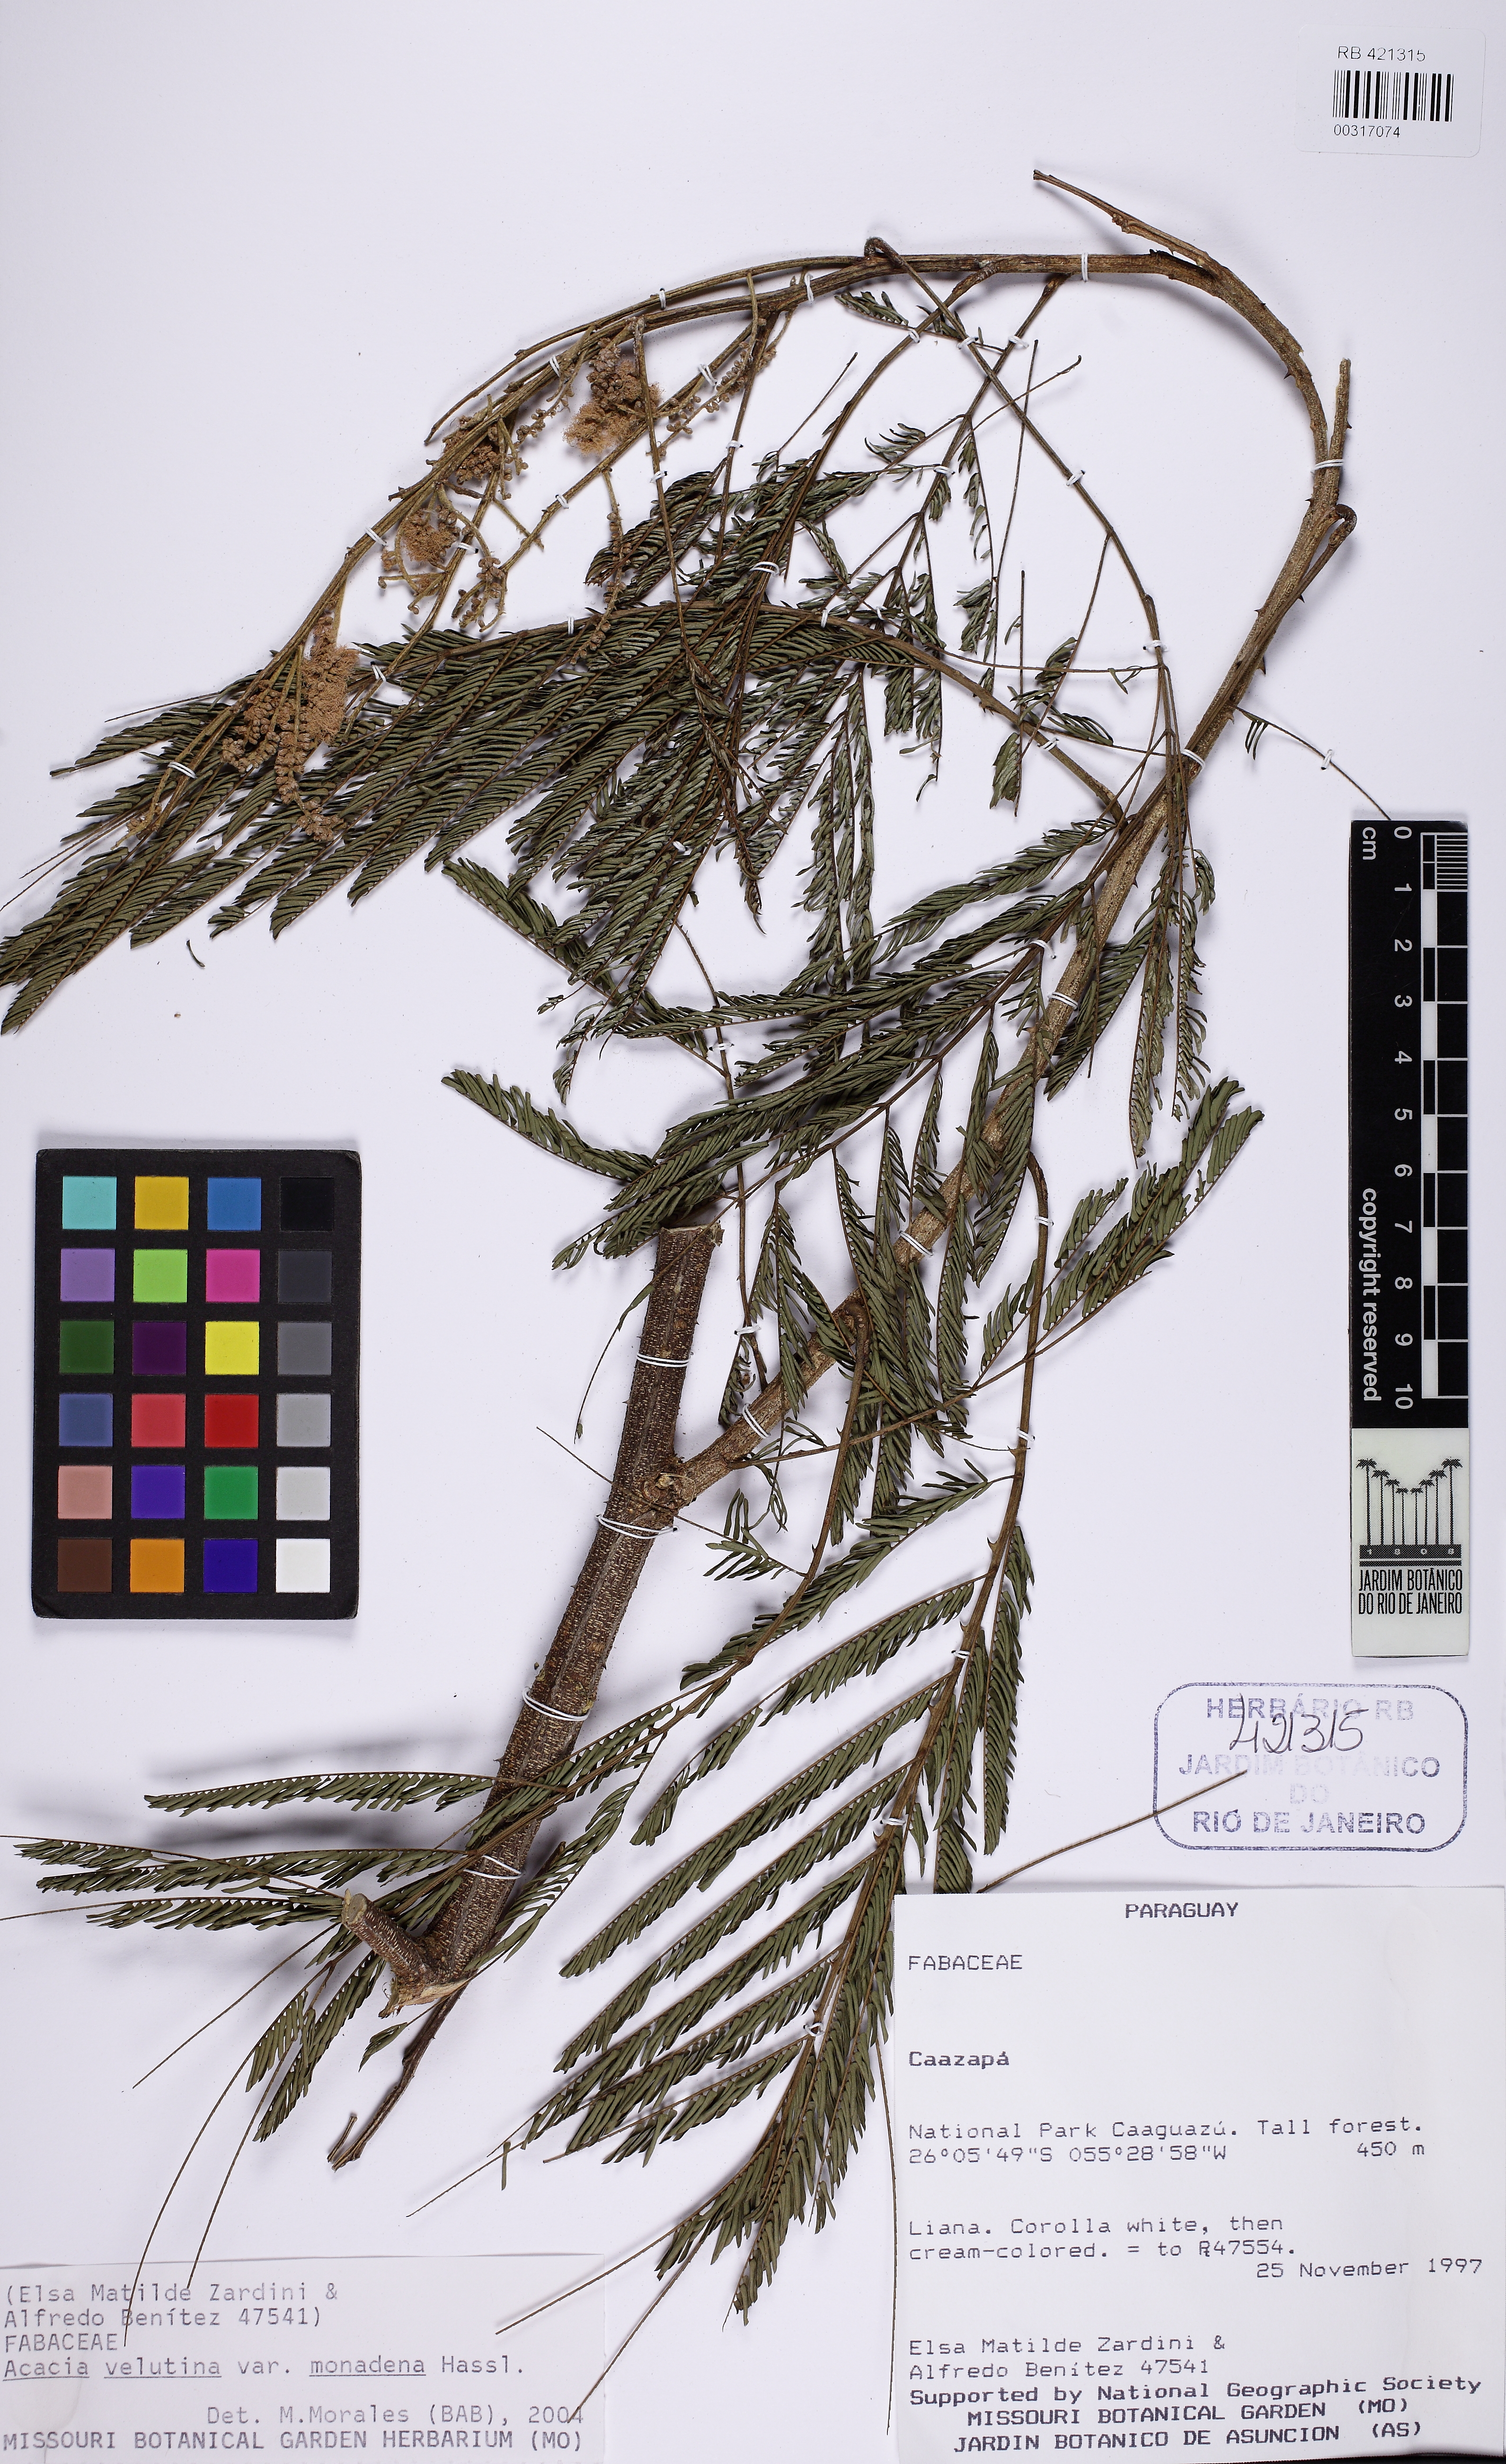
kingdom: Plantae
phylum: Tracheophyta
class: Magnoliopsida
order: Fabales
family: Fabaceae
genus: Senegalia
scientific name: Senegalia velutina
